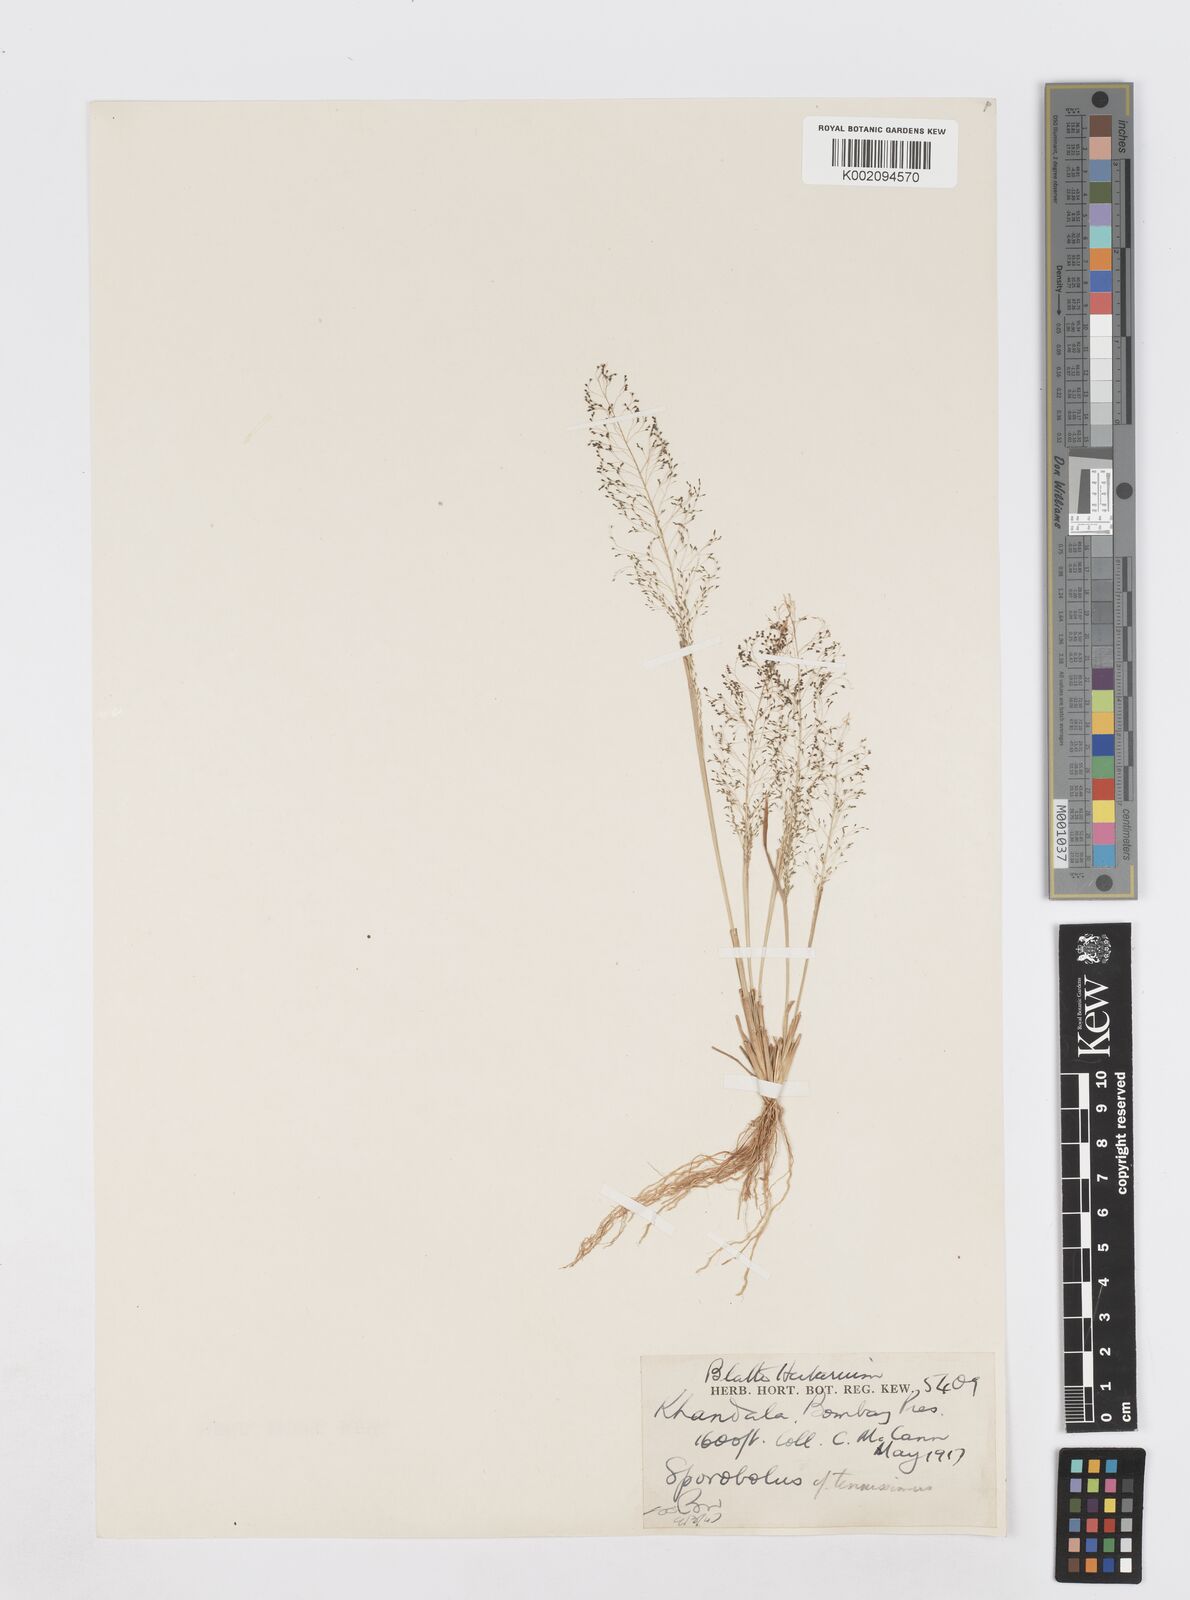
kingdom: Plantae
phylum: Tracheophyta
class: Liliopsida
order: Poales
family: Poaceae
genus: Sporobolus
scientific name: Sporobolus tenuissimus
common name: Tropical dropseed
